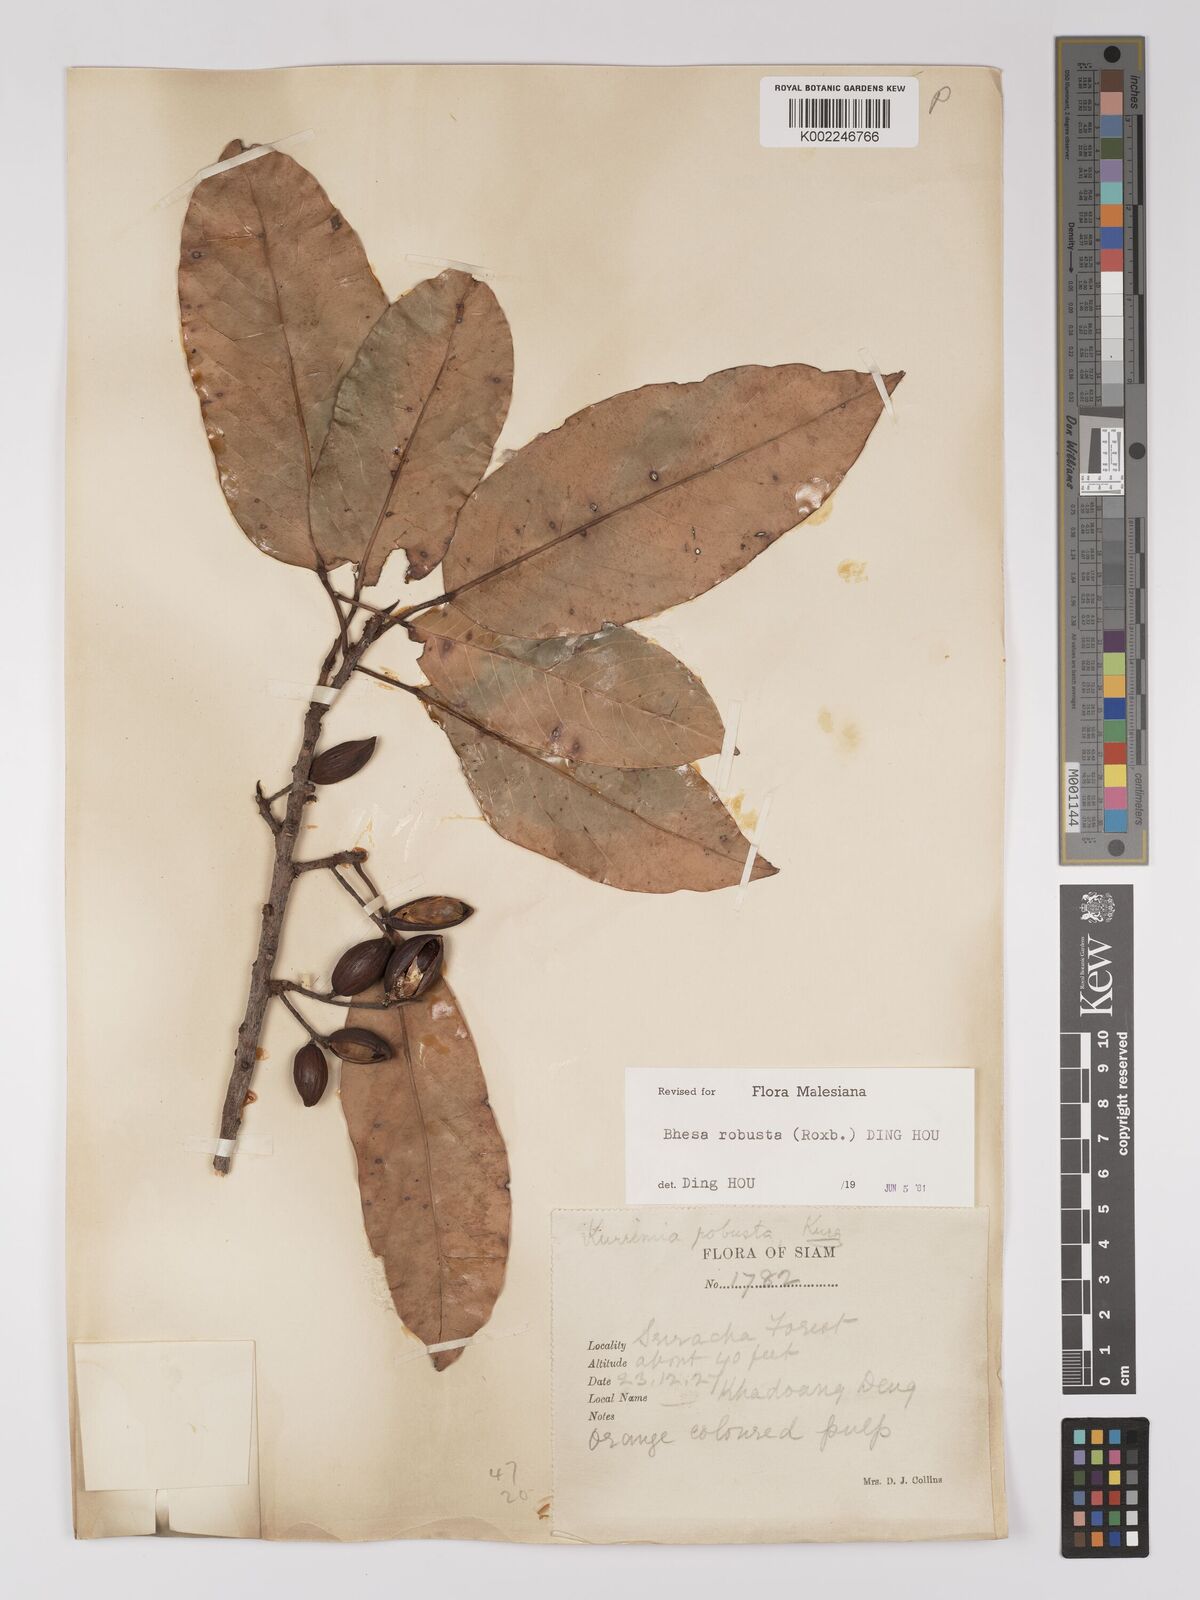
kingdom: Plantae
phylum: Tracheophyta
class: Magnoliopsida
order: Malpighiales
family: Centroplacaceae
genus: Bhesa
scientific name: Bhesa robusta
